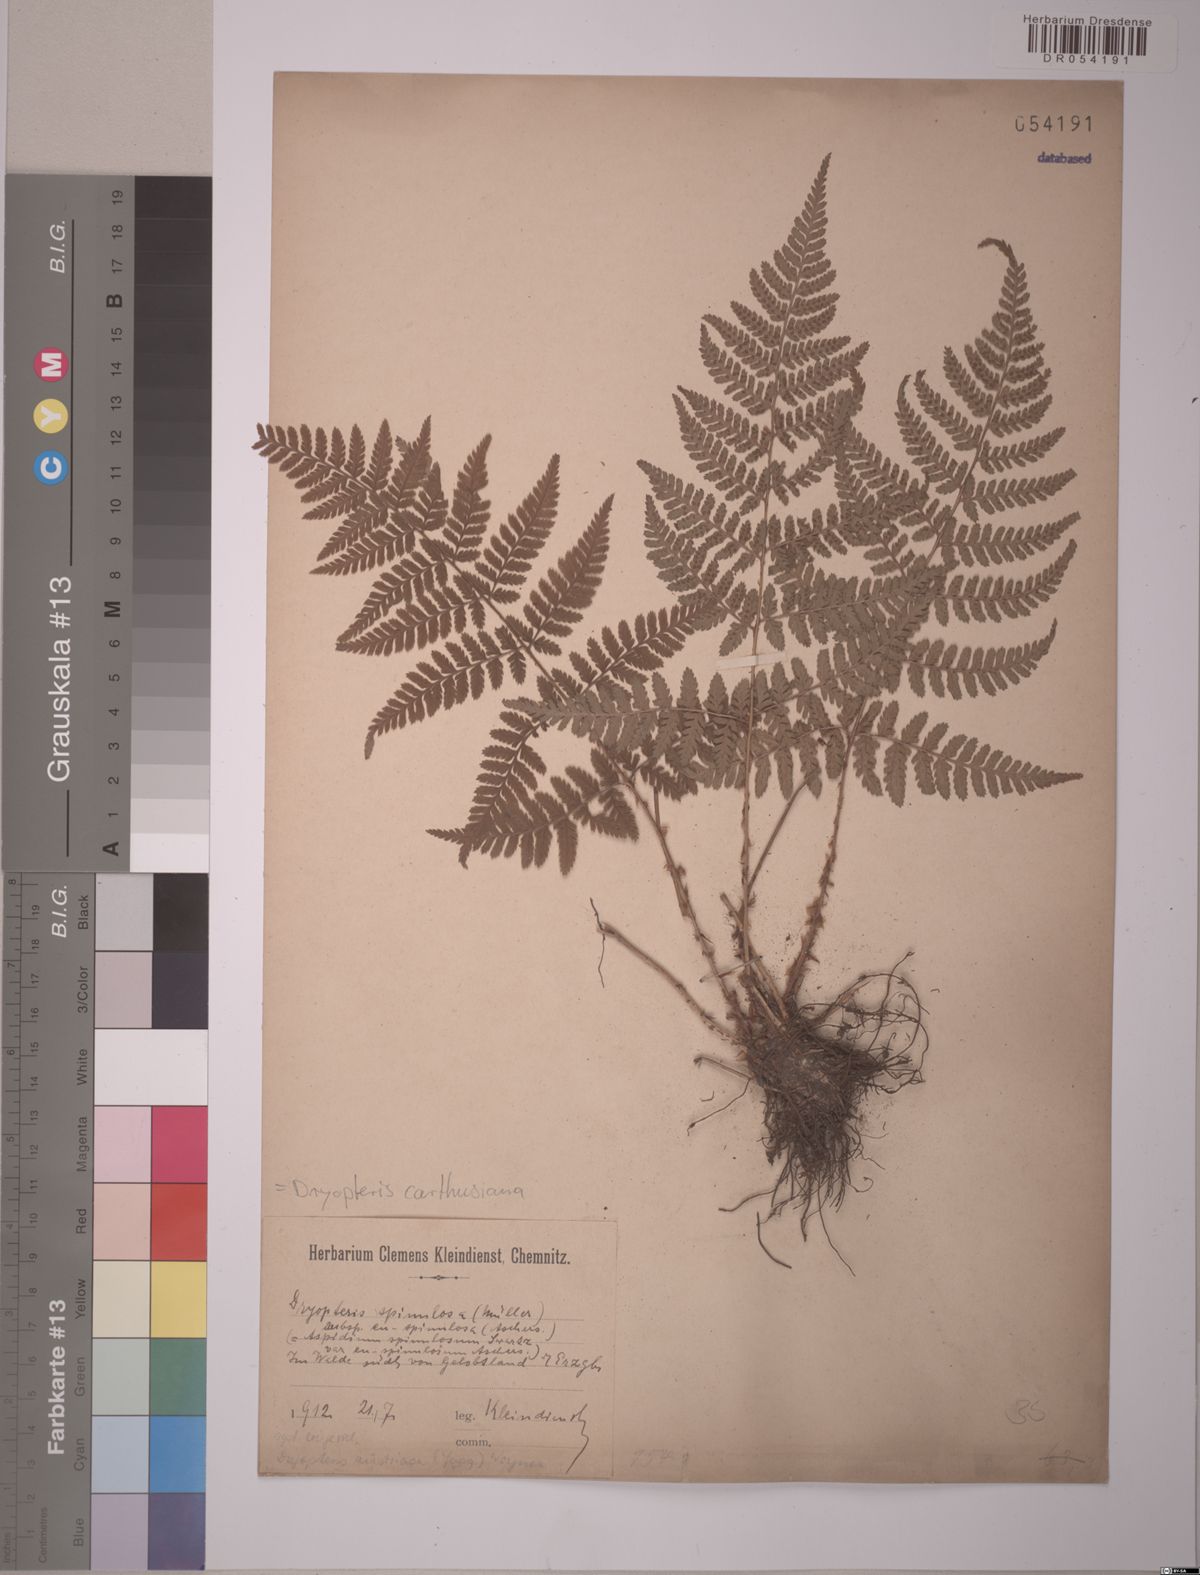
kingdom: Plantae
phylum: Tracheophyta
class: Polypodiopsida
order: Polypodiales
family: Dryopteridaceae
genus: Dryopteris
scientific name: Dryopteris carthusiana
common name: Narrow buckler-fern
